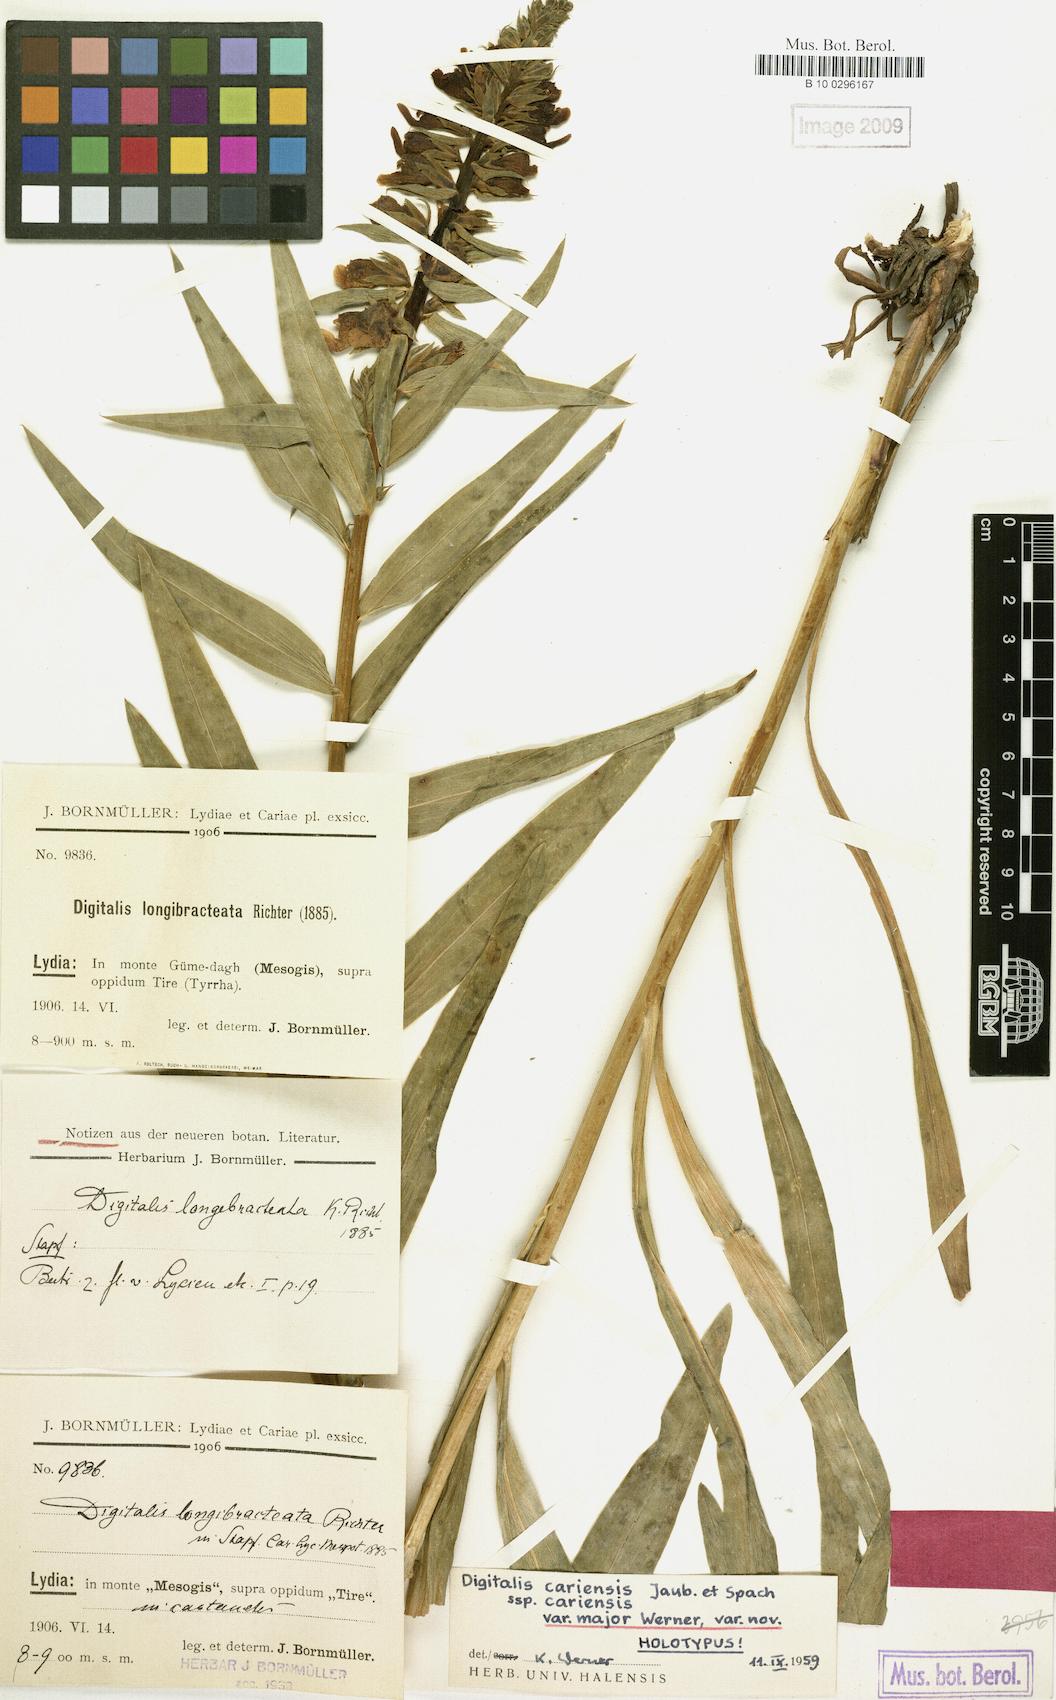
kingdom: Plantae
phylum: Tracheophyta
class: Magnoliopsida
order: Lamiales
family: Plantaginaceae
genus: Digitalis
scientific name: Digitalis cariensis
